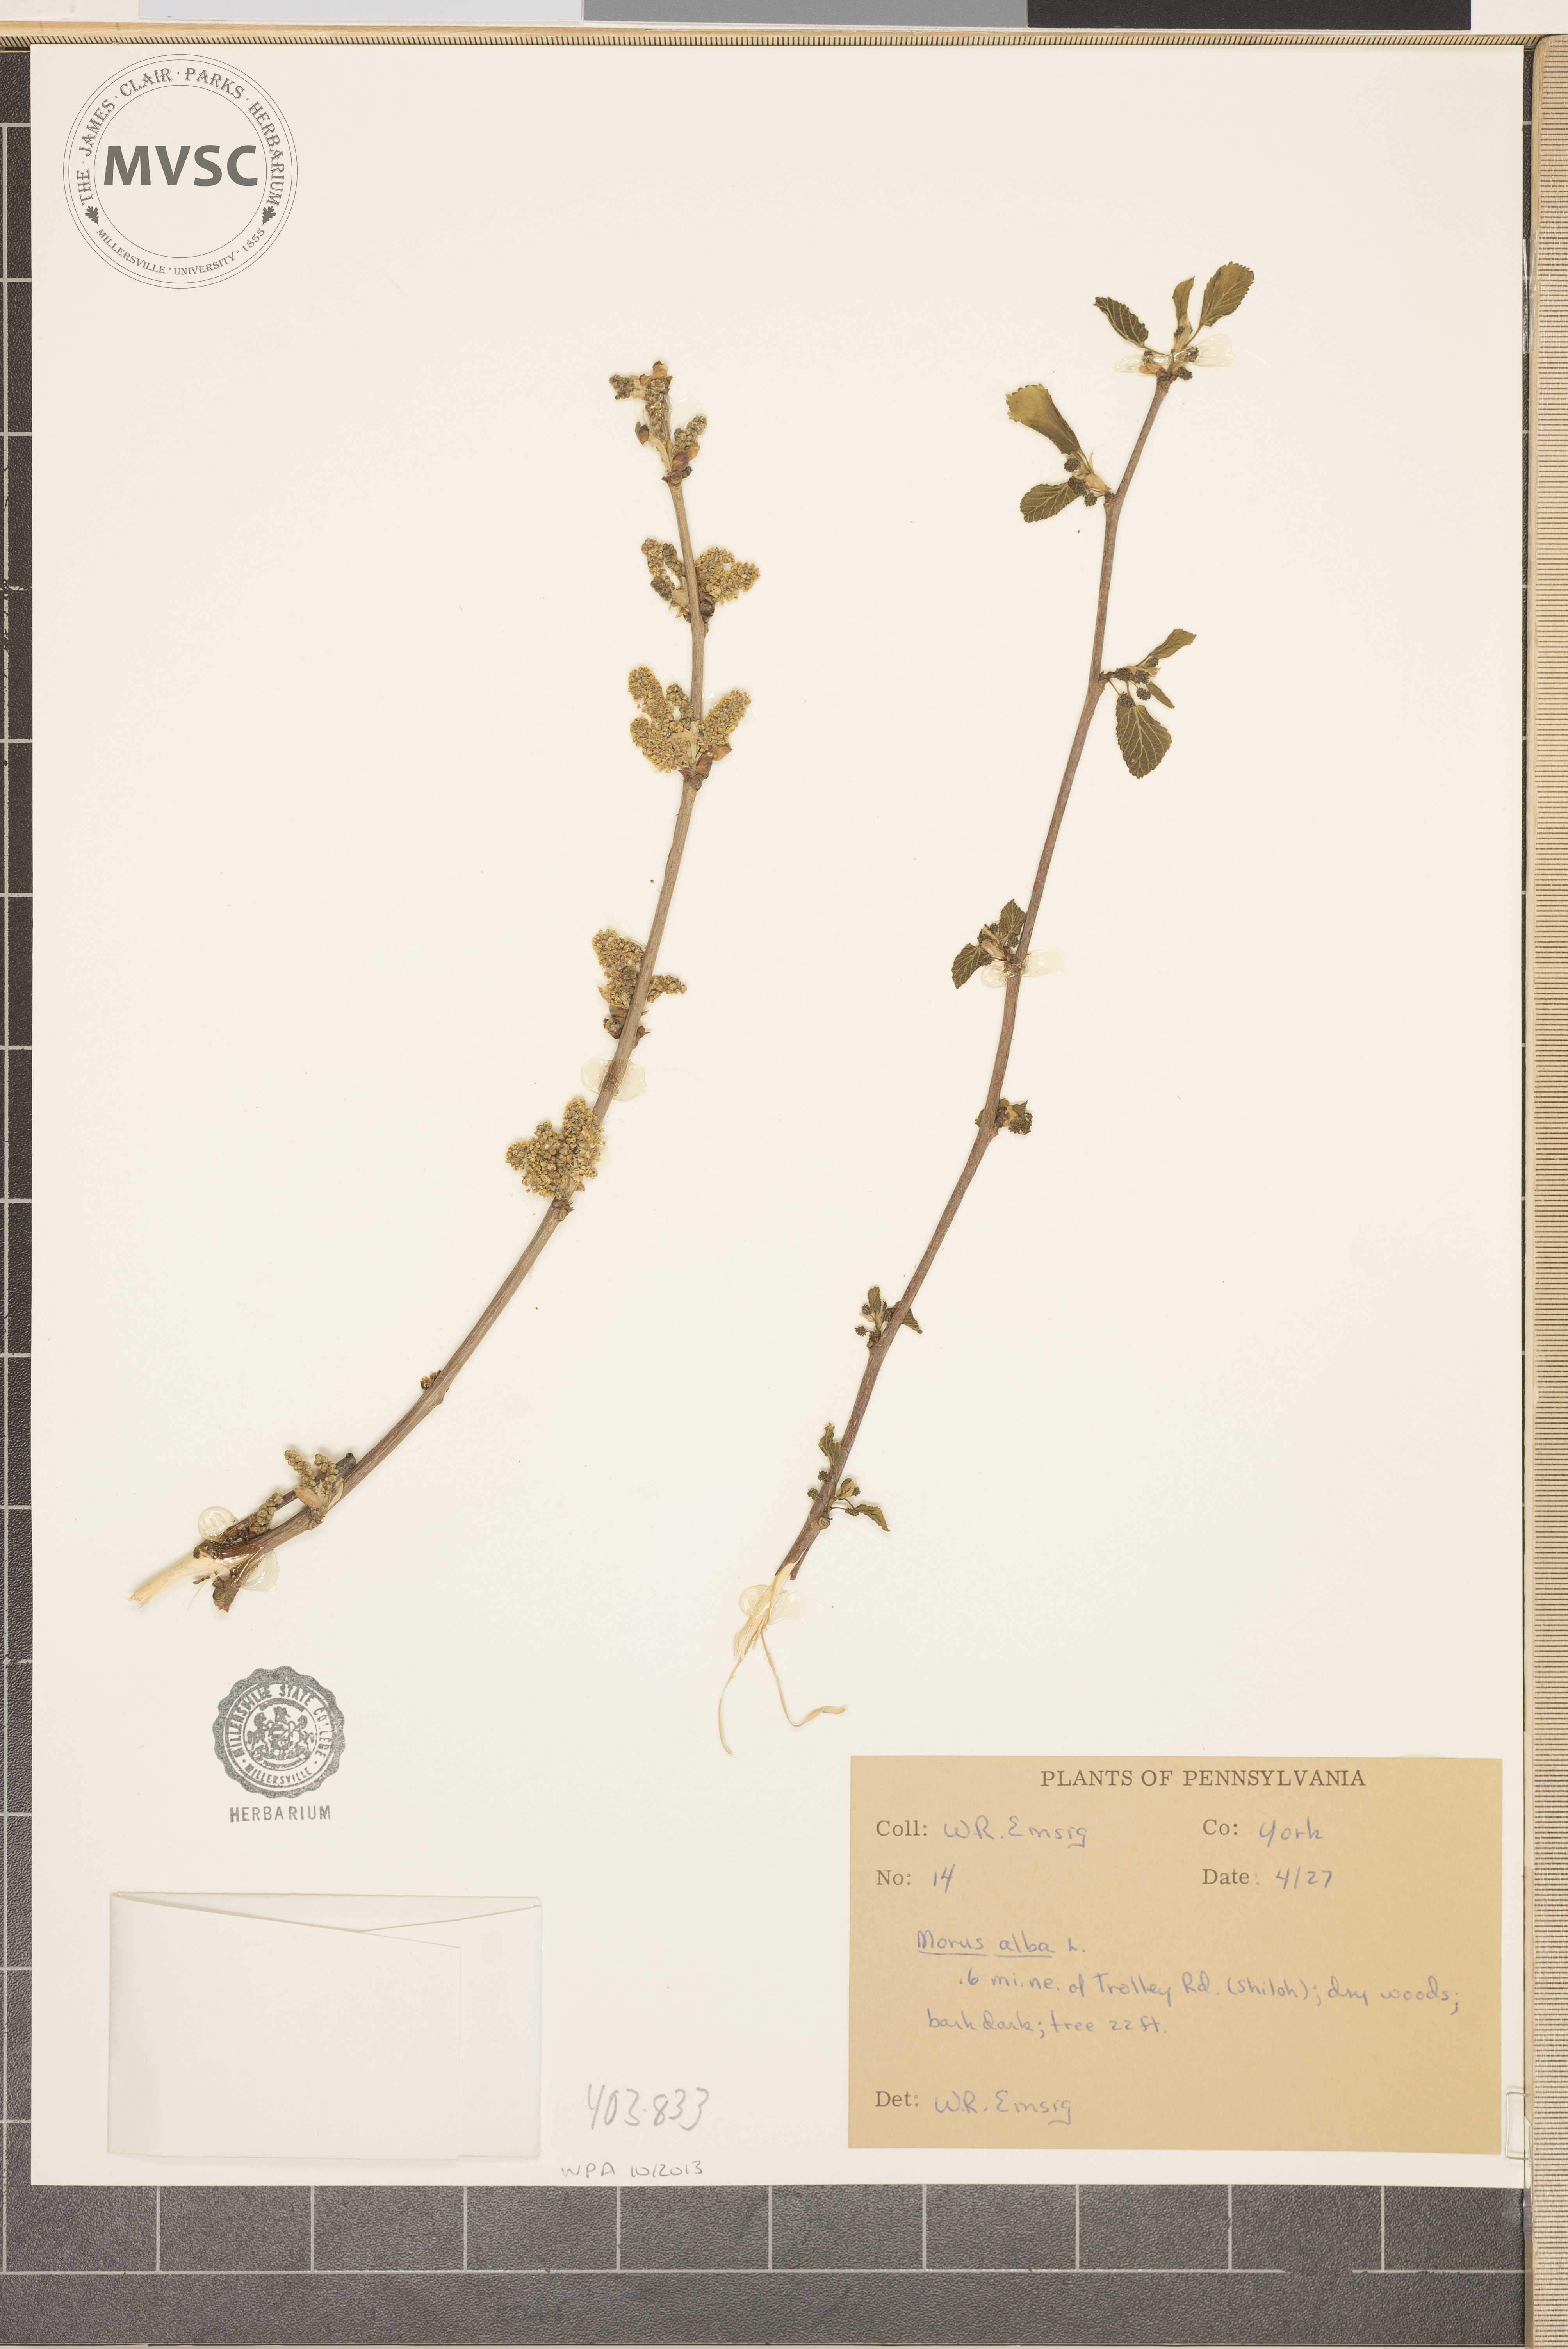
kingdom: Plantae
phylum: Tracheophyta
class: Magnoliopsida
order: Rosales
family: Moraceae
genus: Morus
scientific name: Morus alba
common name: White mulberry
